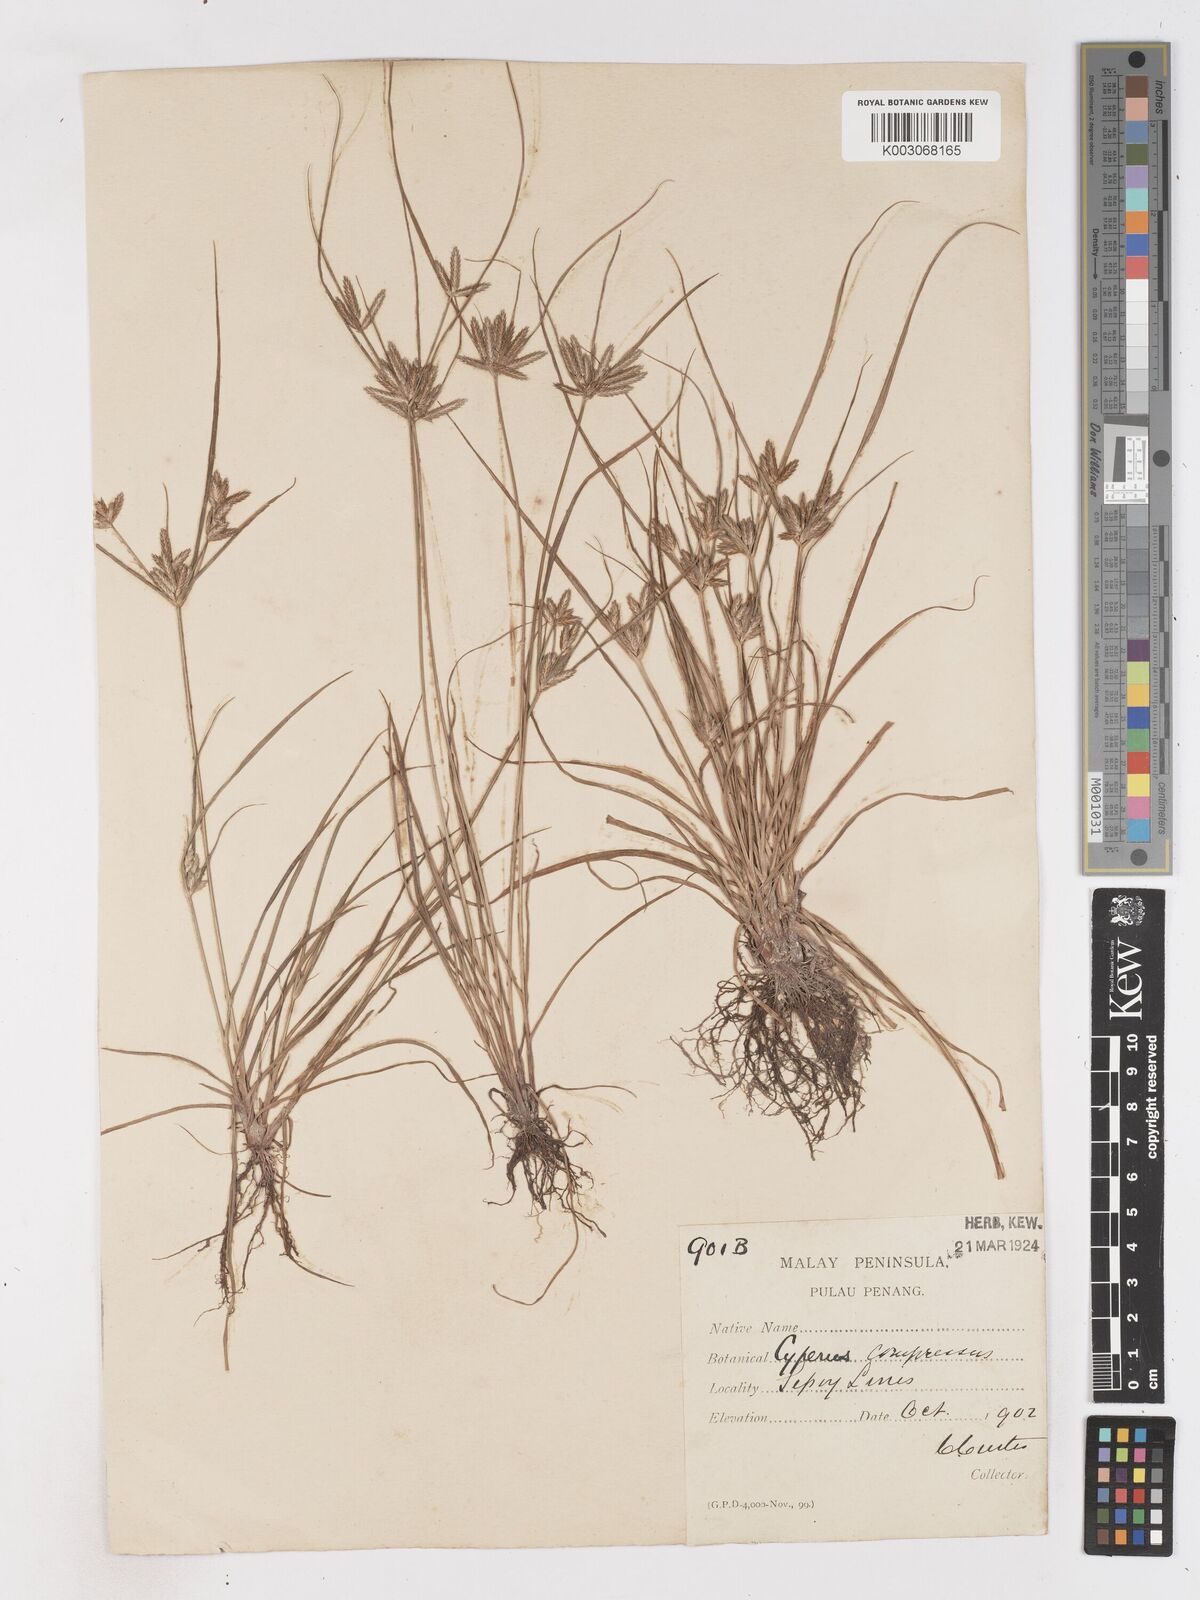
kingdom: Plantae
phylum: Tracheophyta
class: Liliopsida
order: Poales
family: Cyperaceae
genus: Cyperus
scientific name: Cyperus compressus
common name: Poorland flatsedge
